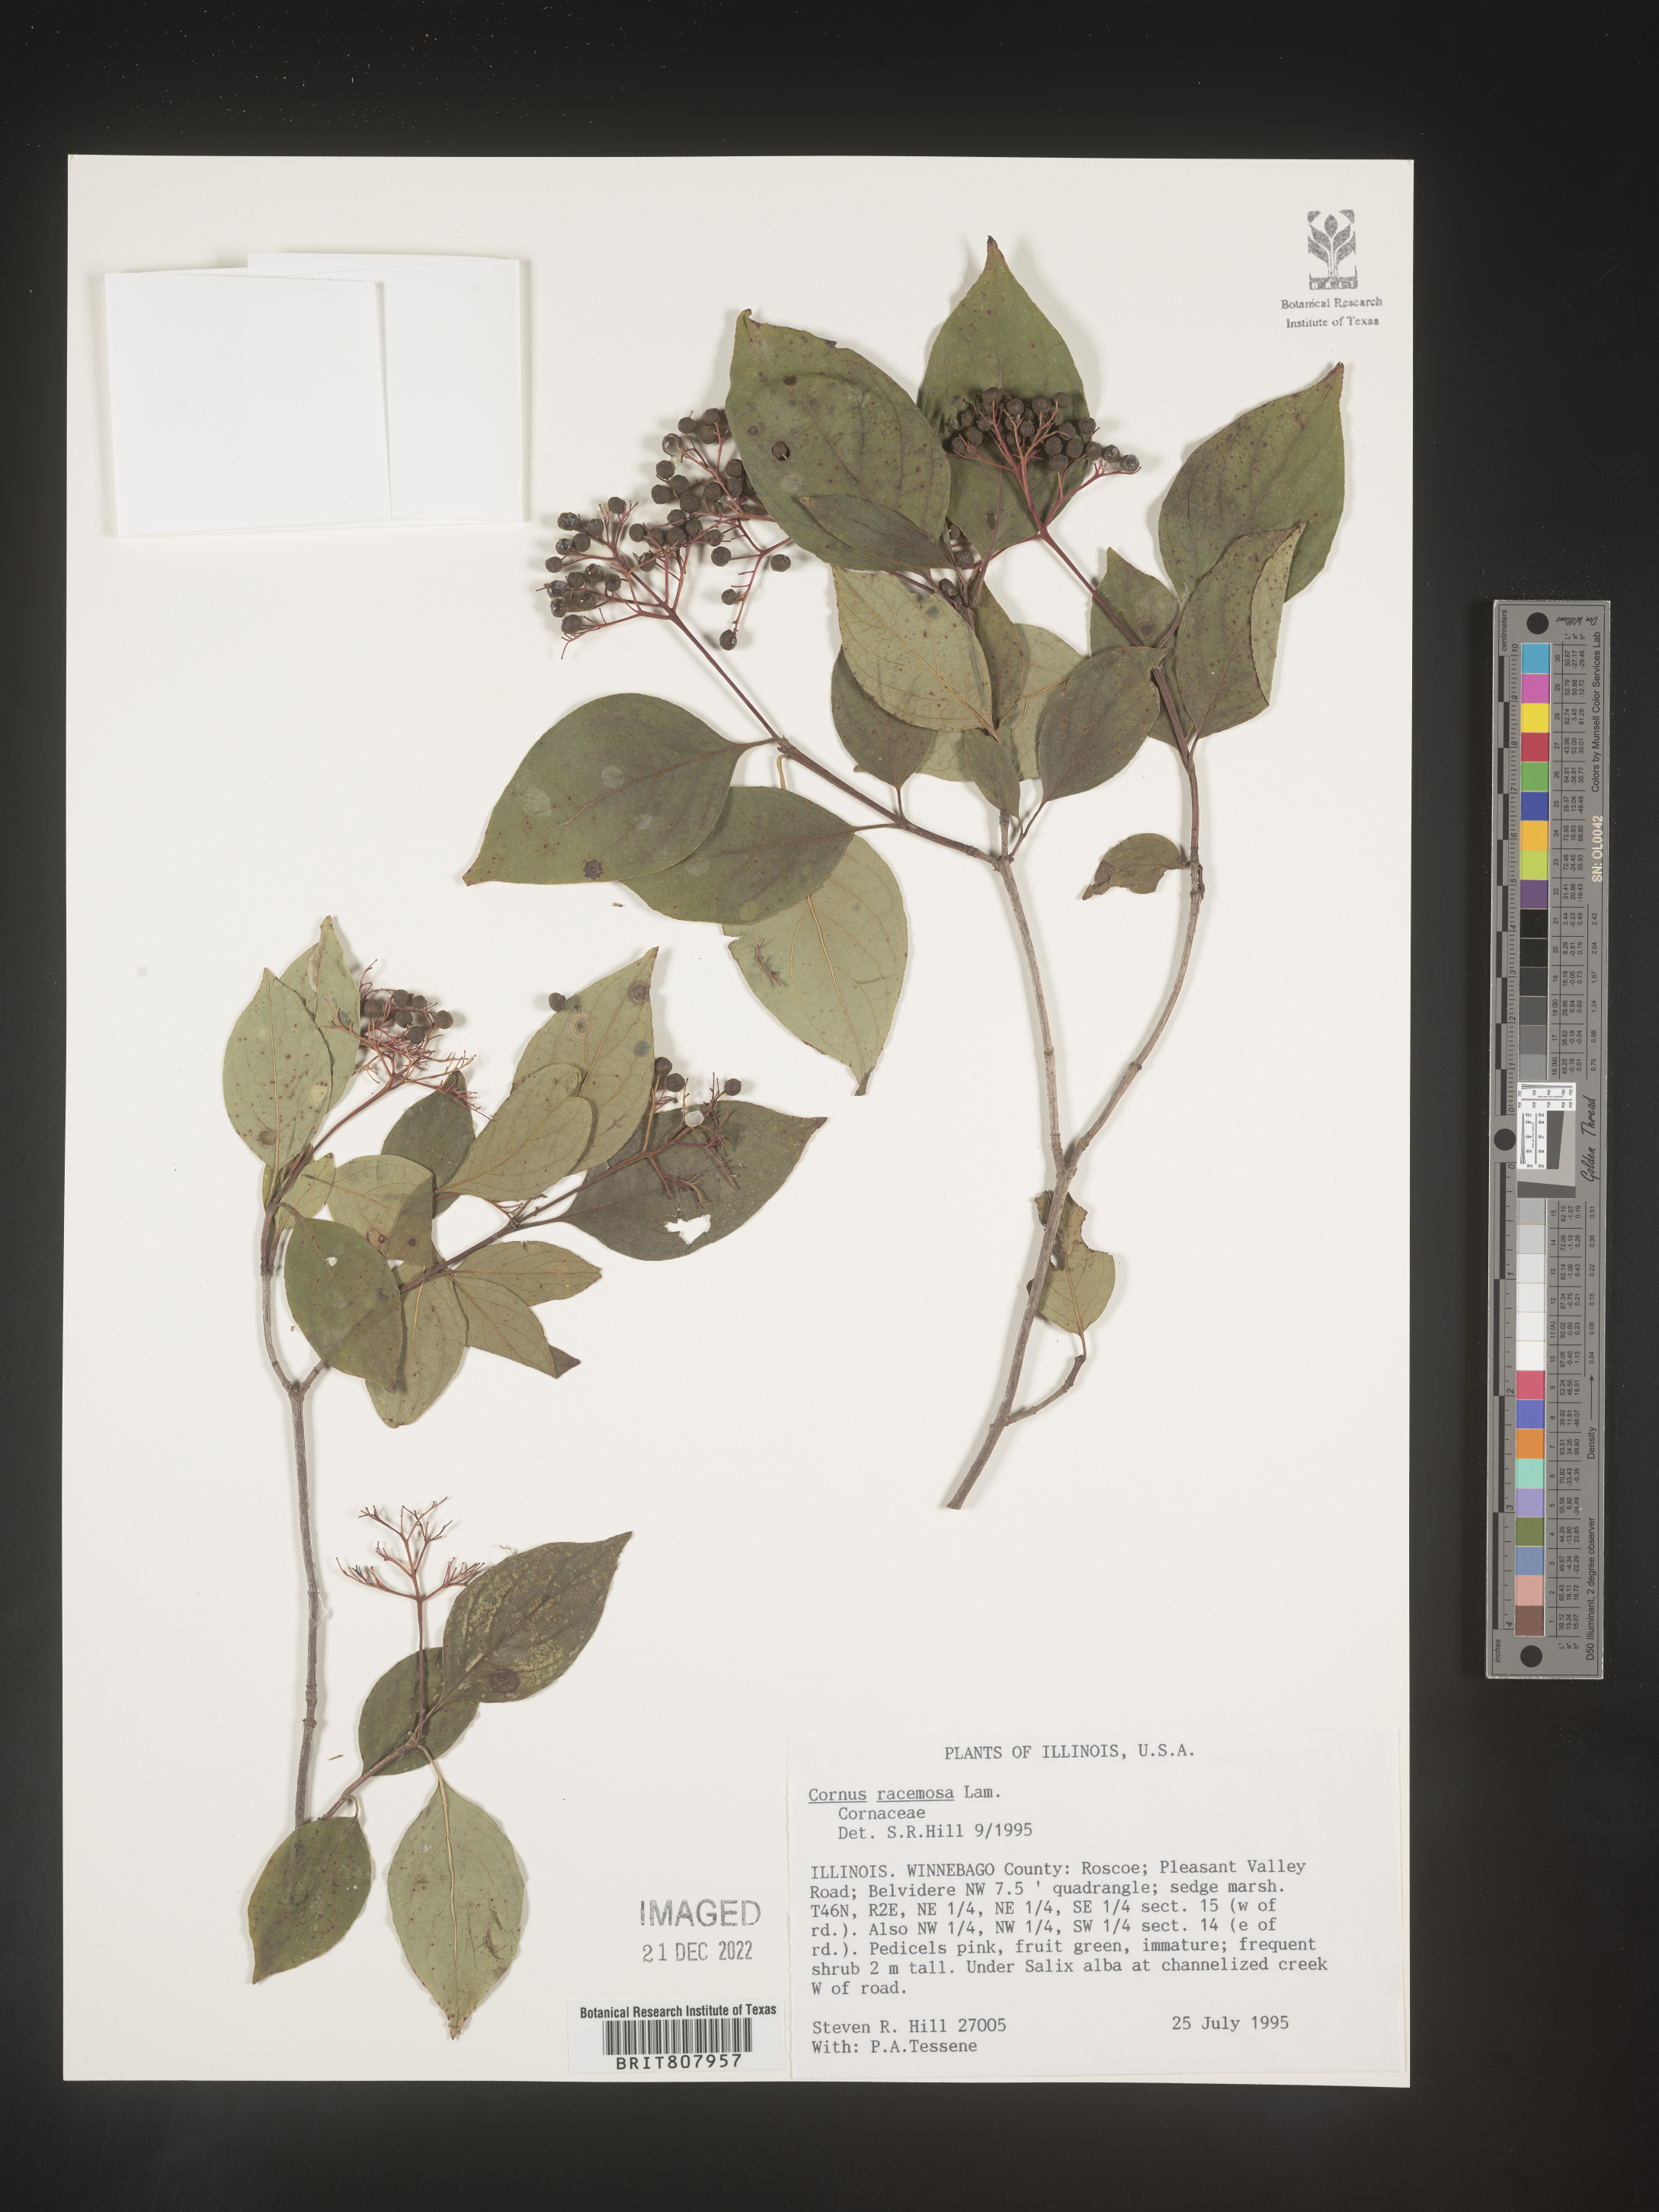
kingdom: Plantae
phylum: Tracheophyta
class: Magnoliopsida
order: Cornales
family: Cornaceae
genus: Cornus
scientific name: Cornus racemosa
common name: Panicled dogwood
